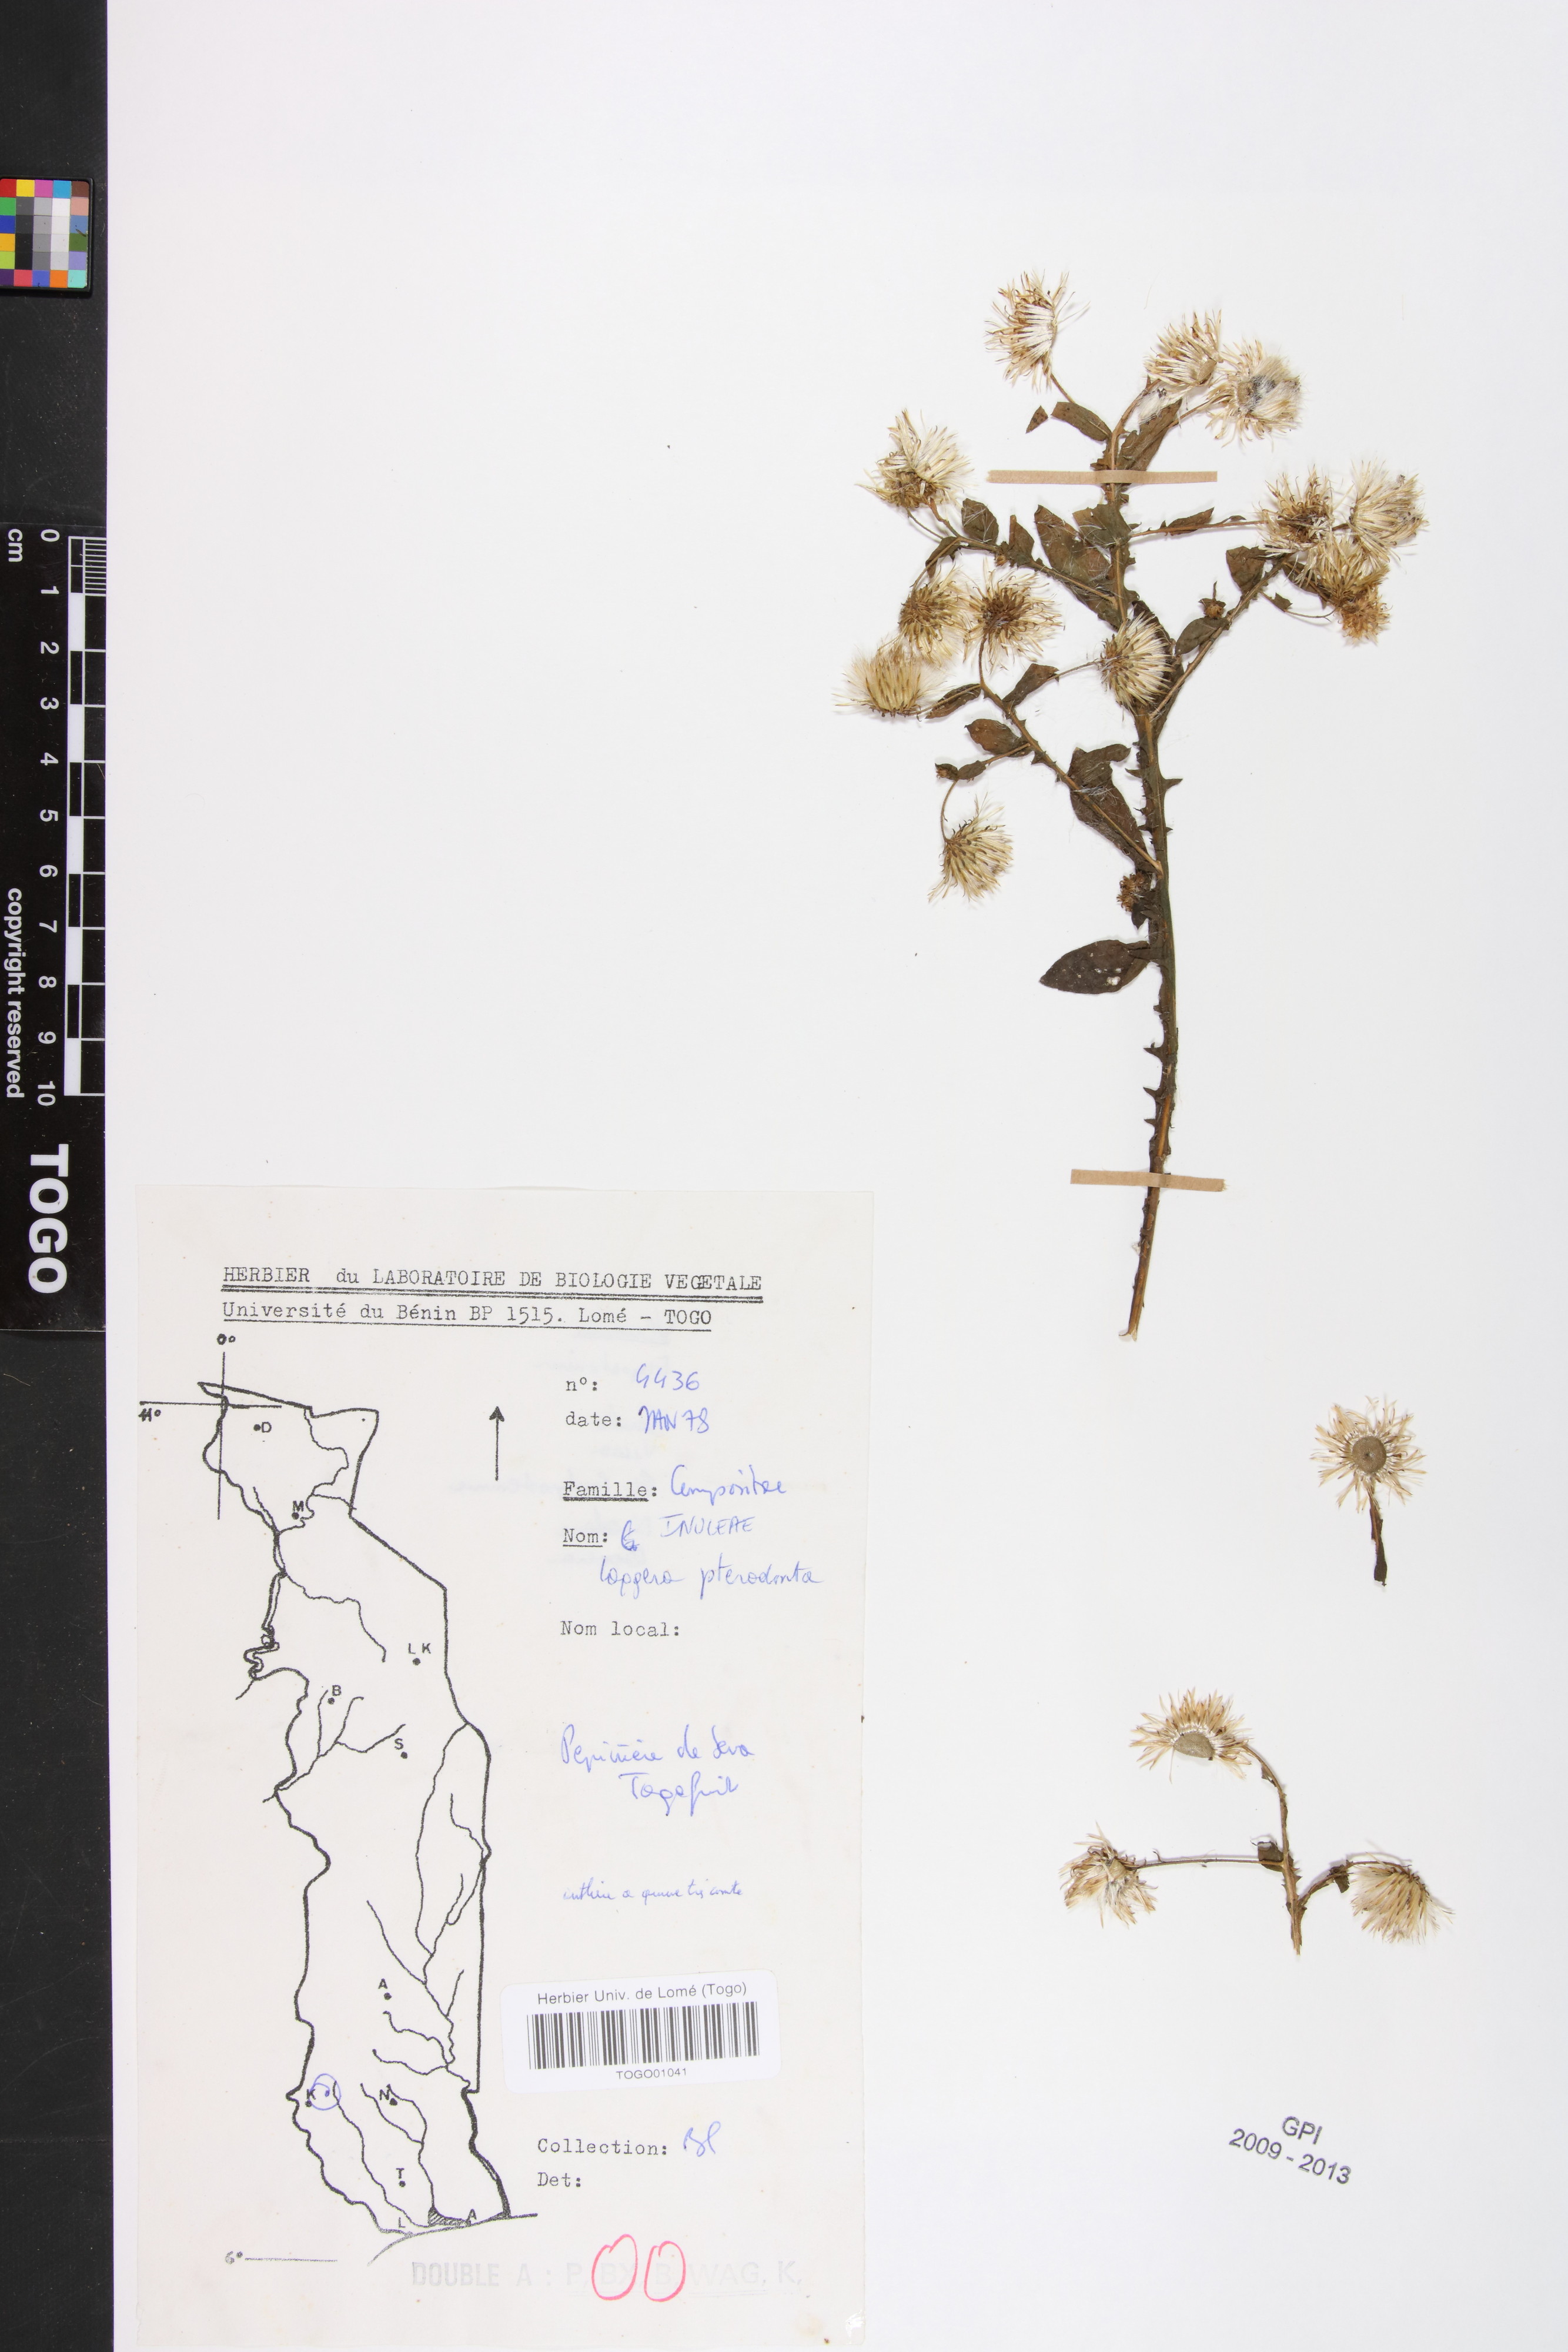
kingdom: Plantae
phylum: Tracheophyta
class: Magnoliopsida
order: Asterales
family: Asteraceae
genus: Laggera
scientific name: Laggera crispata
